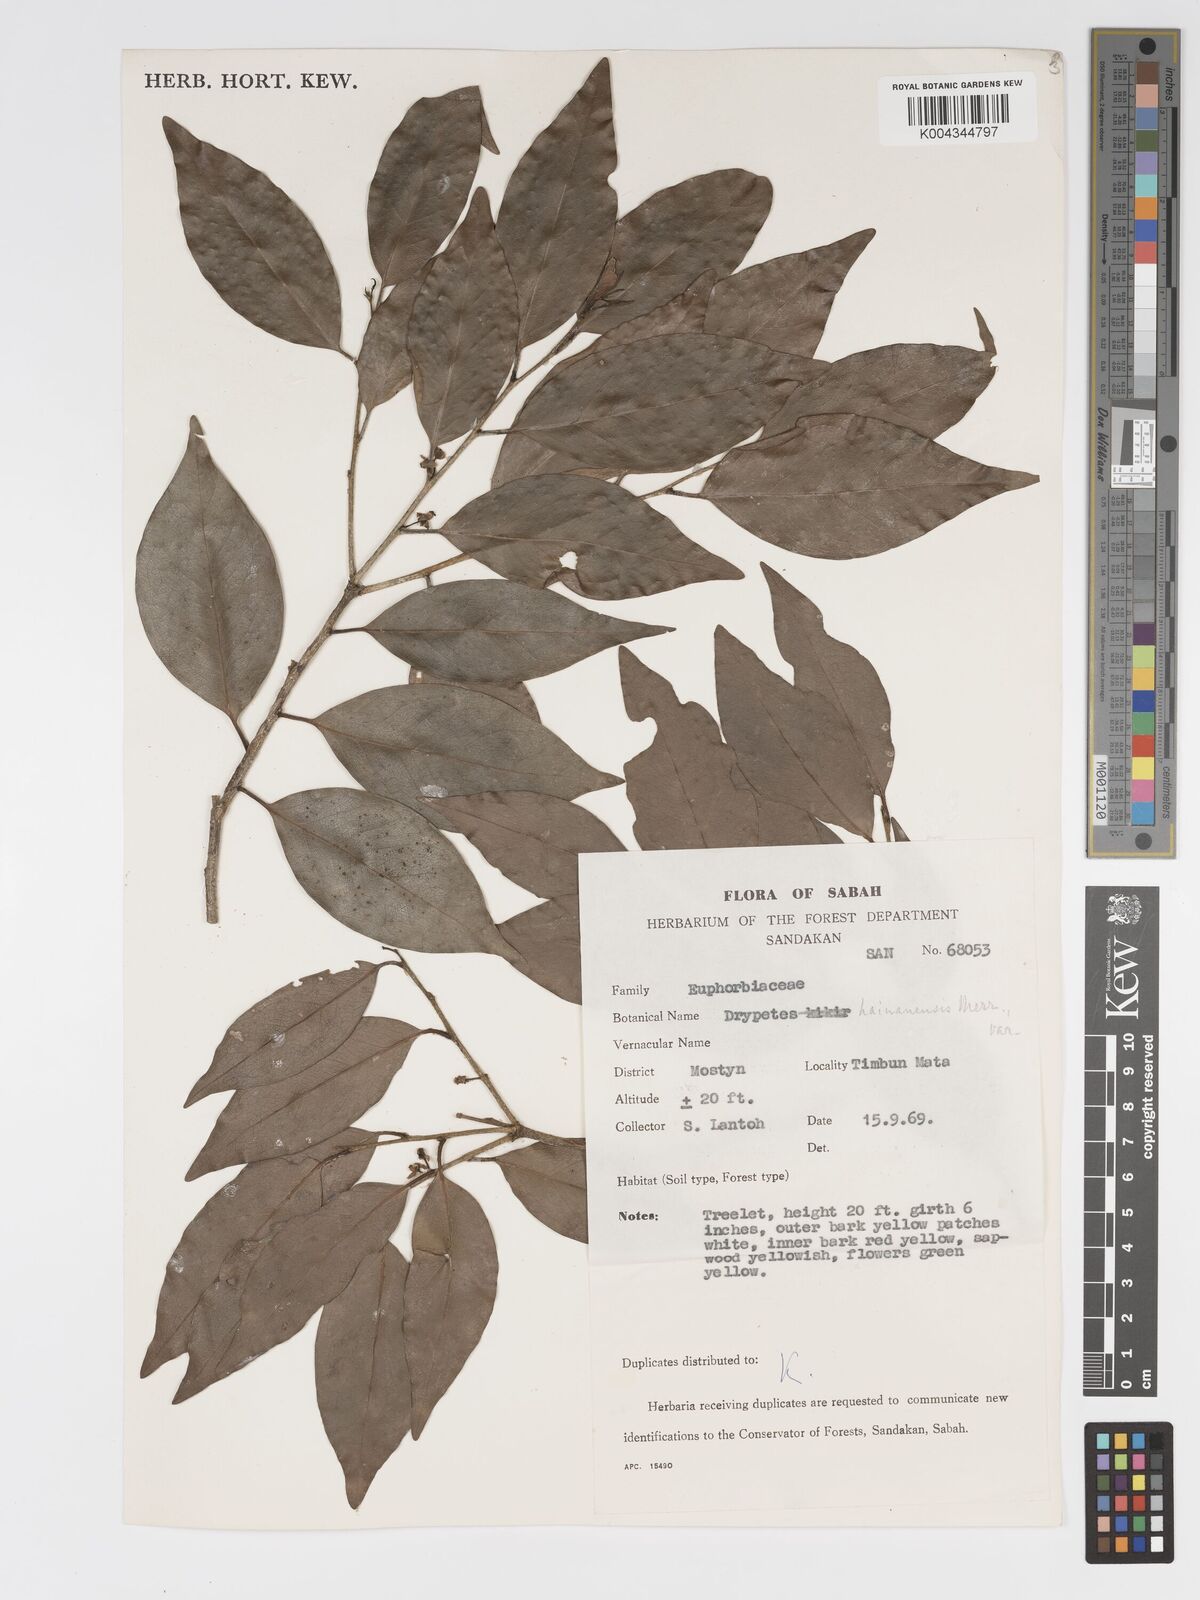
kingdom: Plantae
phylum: Tracheophyta
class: Magnoliopsida
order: Malpighiales
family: Putranjivaceae
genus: Drypetes
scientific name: Drypetes hainanensis
